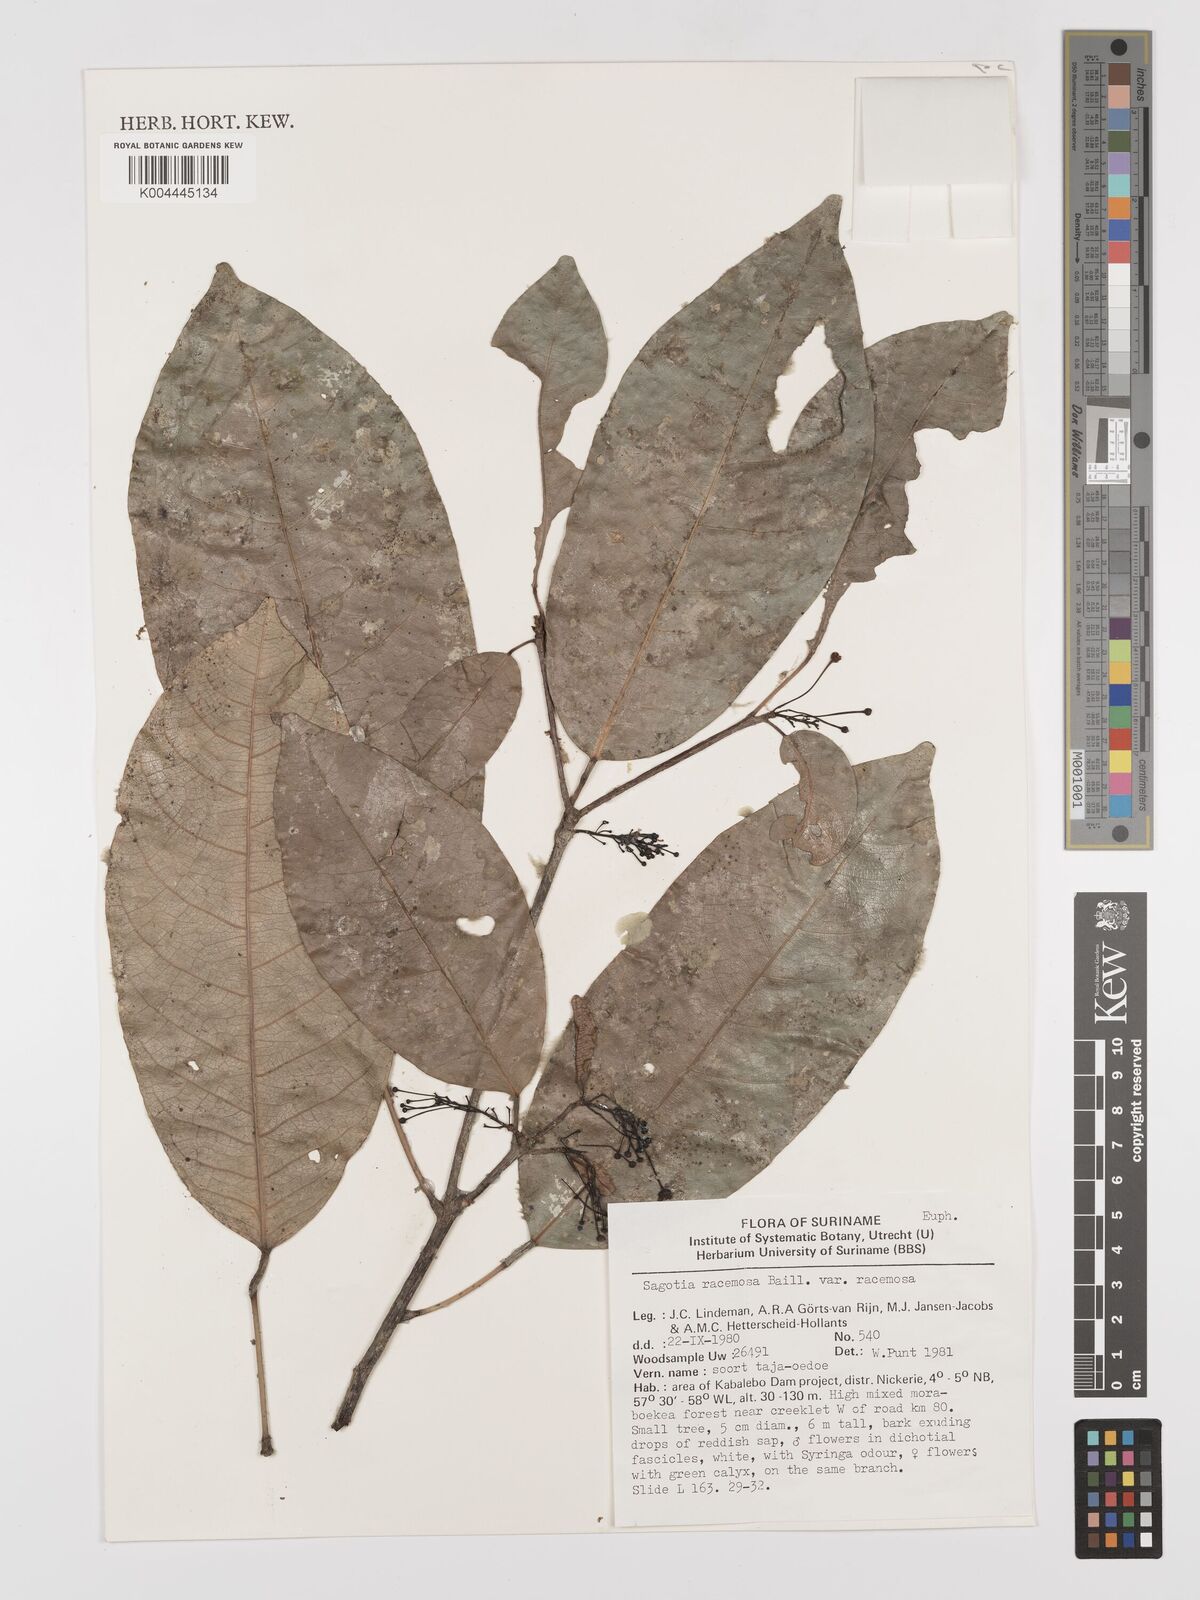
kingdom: Plantae
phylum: Tracheophyta
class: Magnoliopsida
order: Malpighiales
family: Euphorbiaceae
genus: Sagotia
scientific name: Sagotia racemosa
